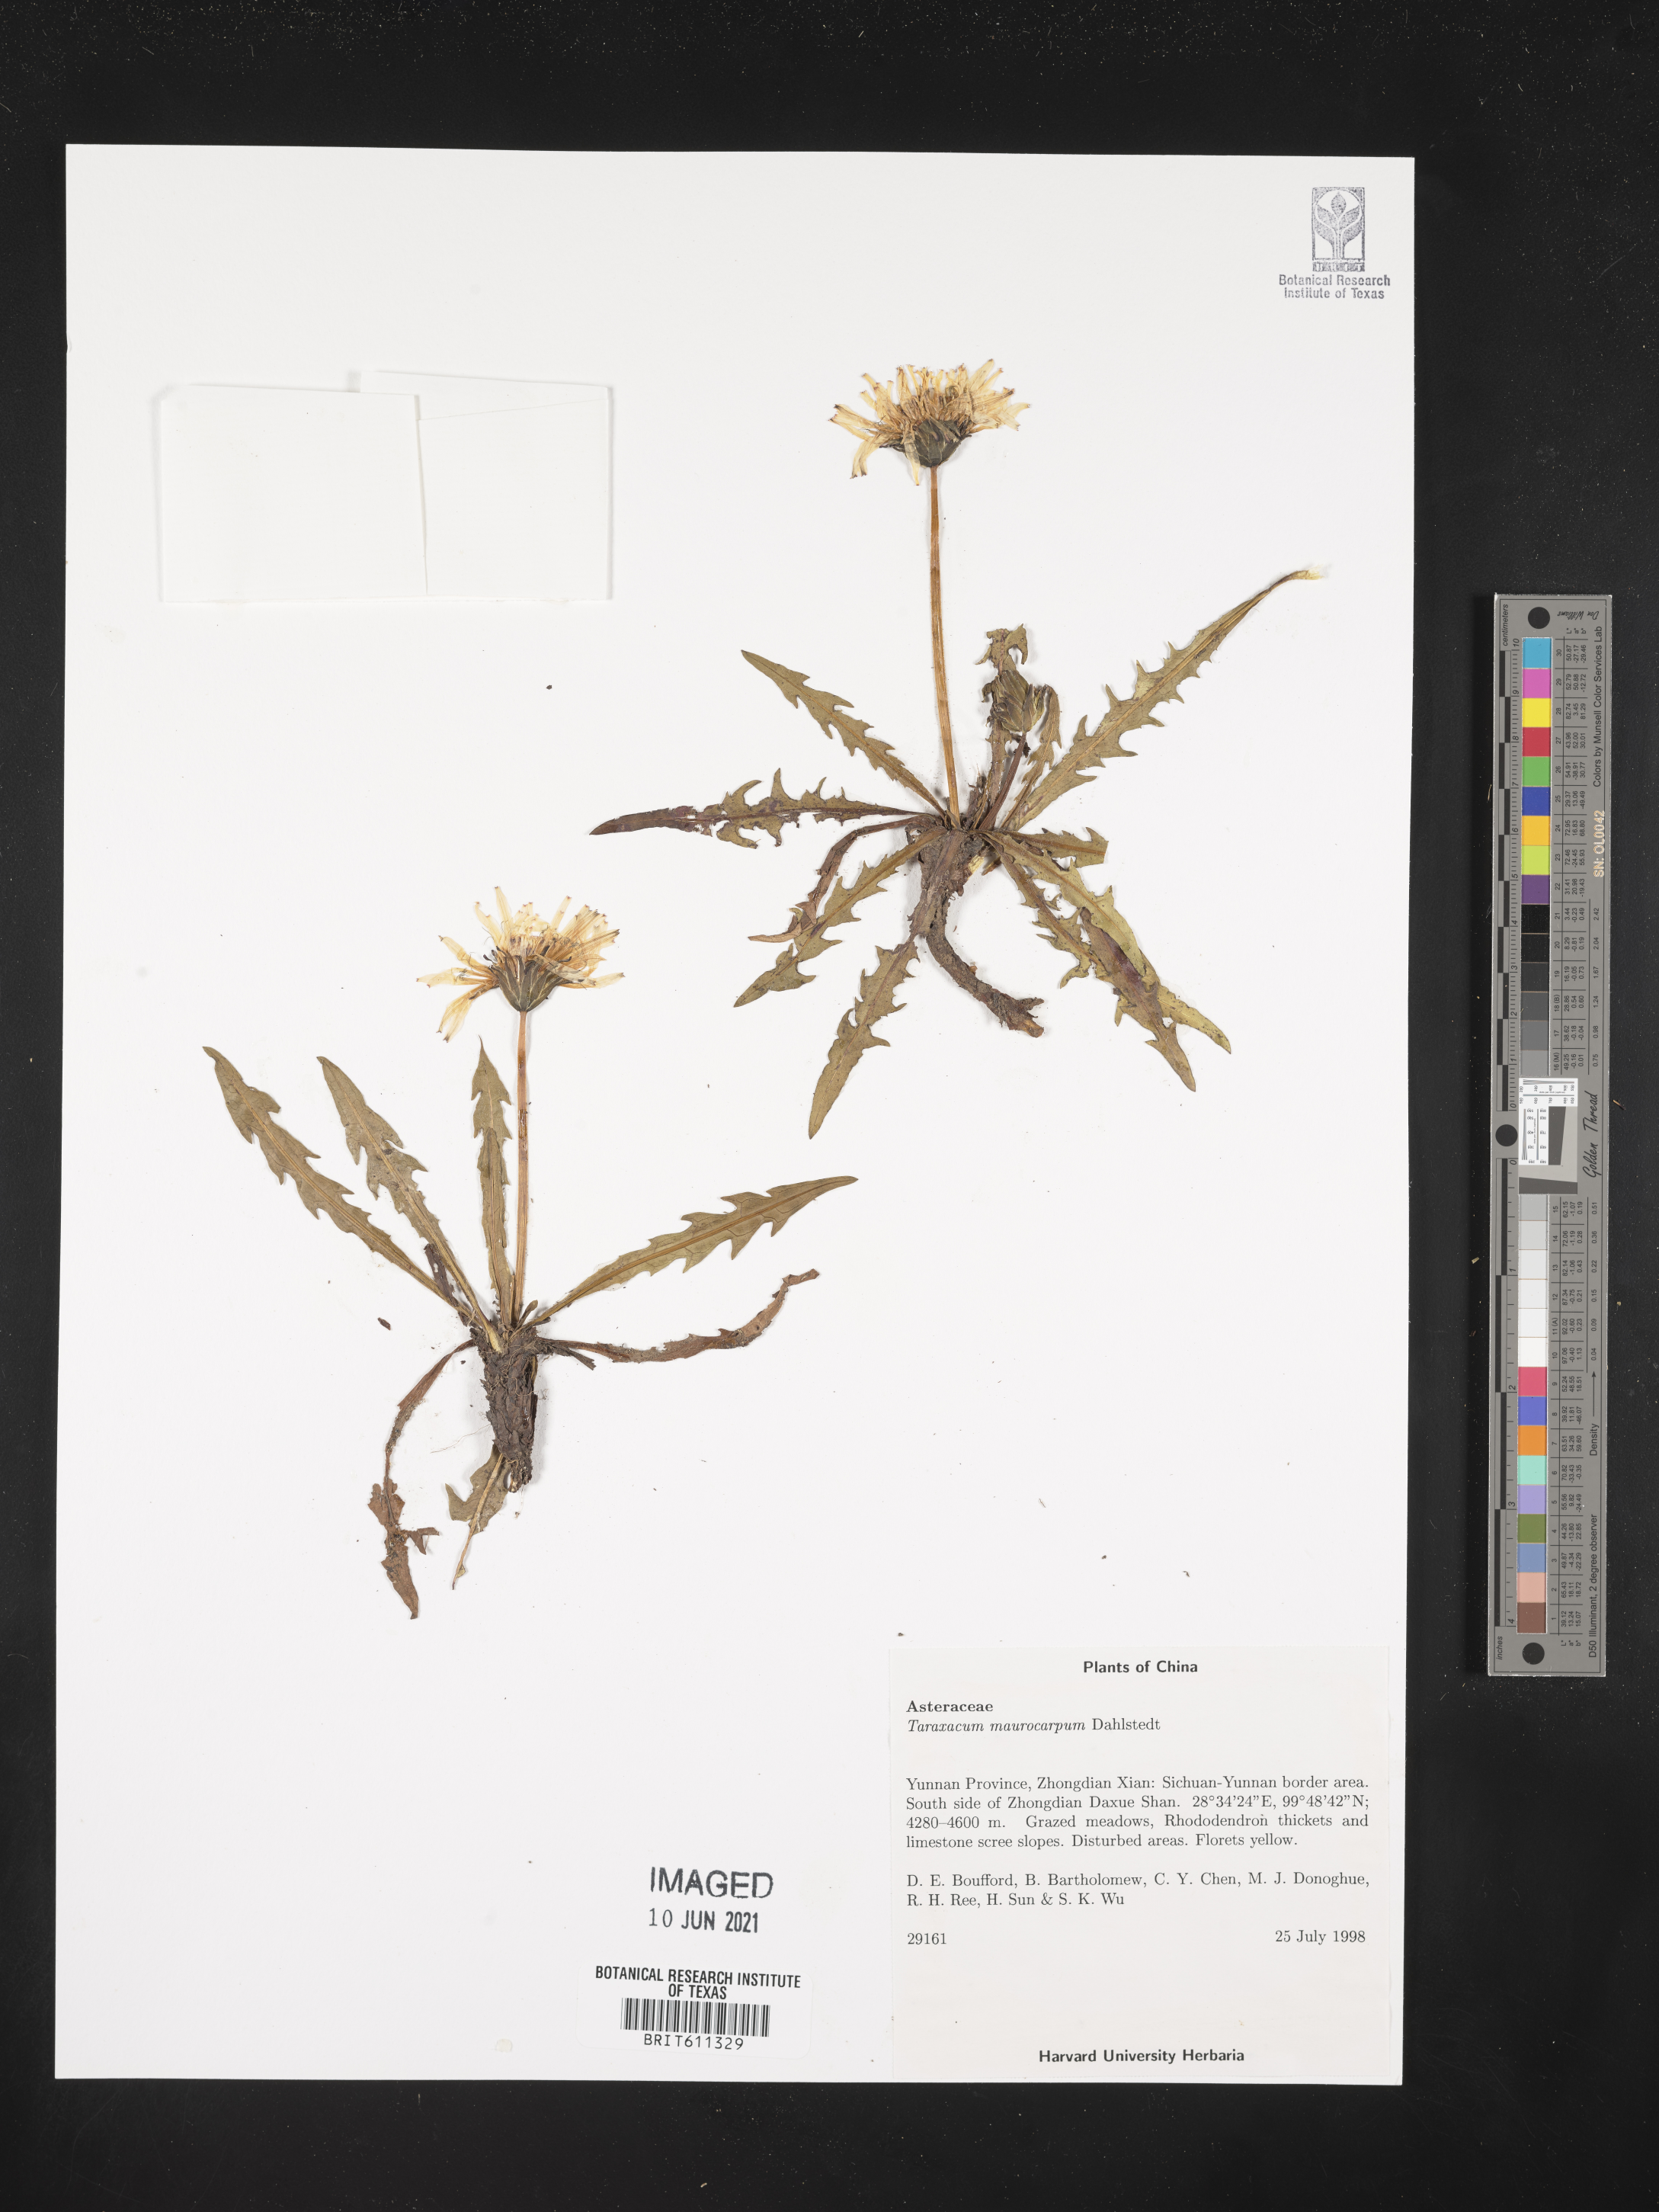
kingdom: Plantae
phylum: Tracheophyta
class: Magnoliopsida
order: Asterales
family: Asteraceae
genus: Taraxacum
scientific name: Taraxacum maurocarpum
